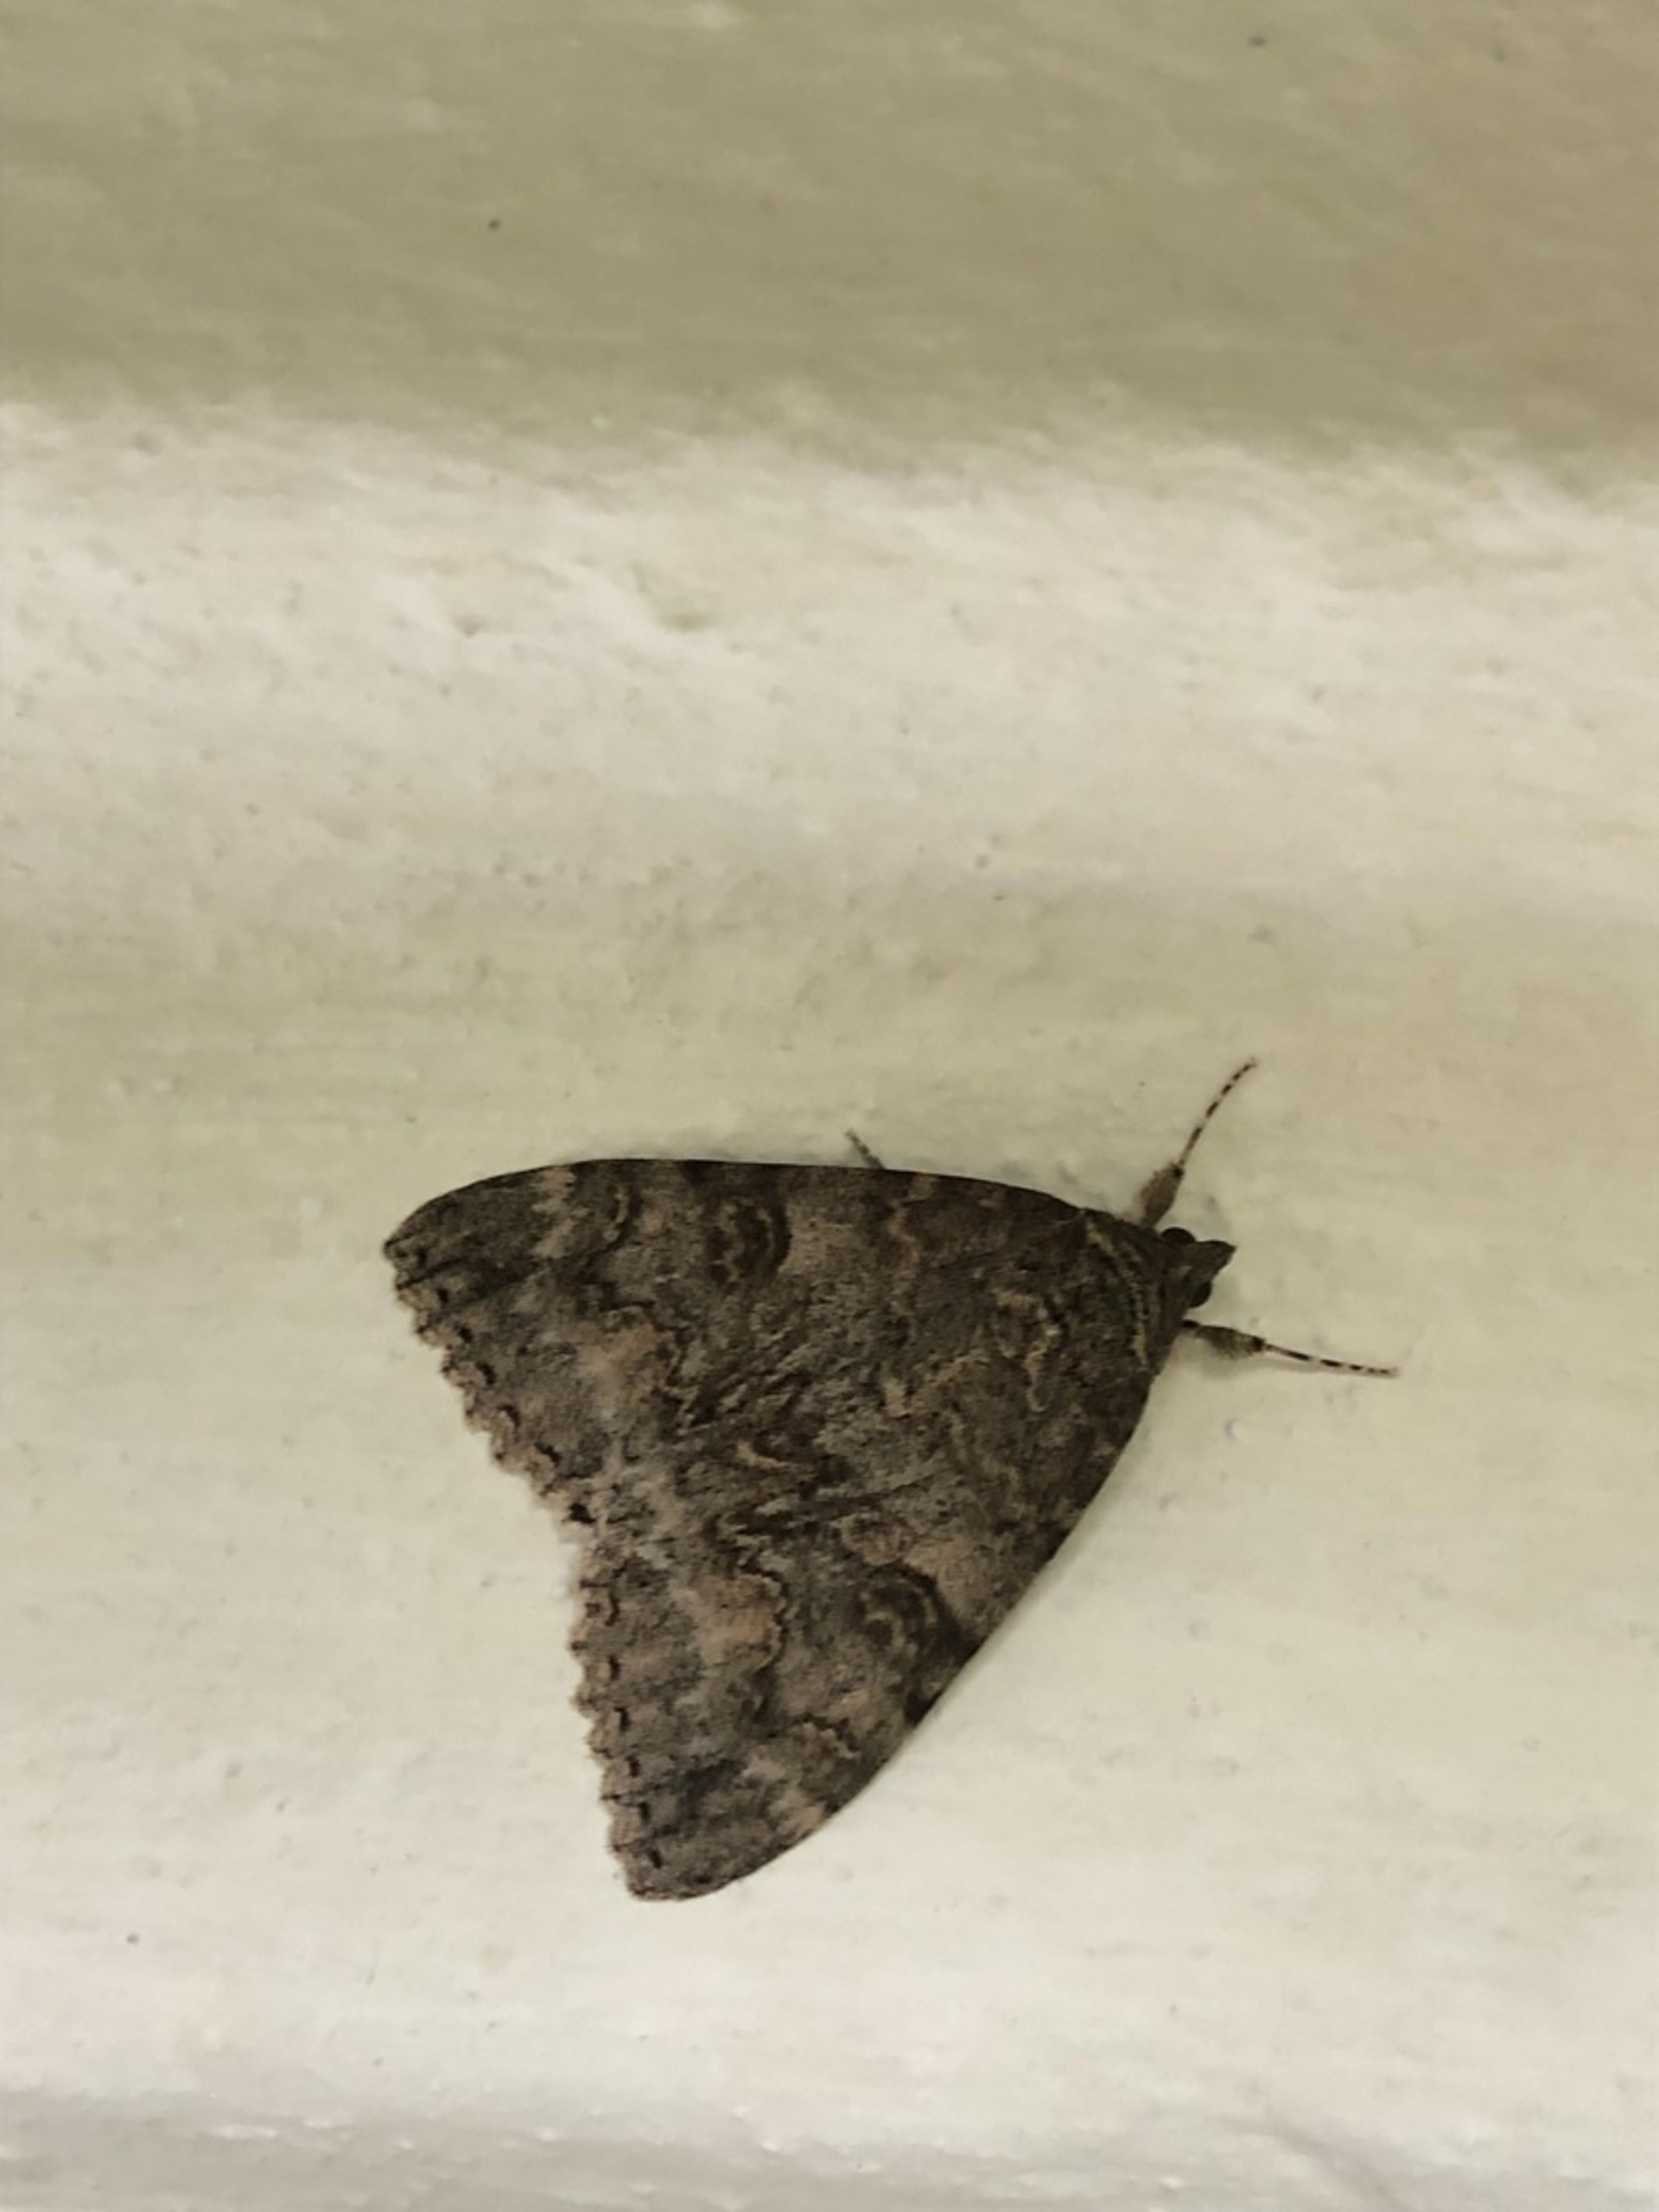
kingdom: Animalia
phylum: Arthropoda
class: Insecta
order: Lepidoptera
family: Erebidae
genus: Catocala
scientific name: Catocala nupta
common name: Rødt ordensbånd
